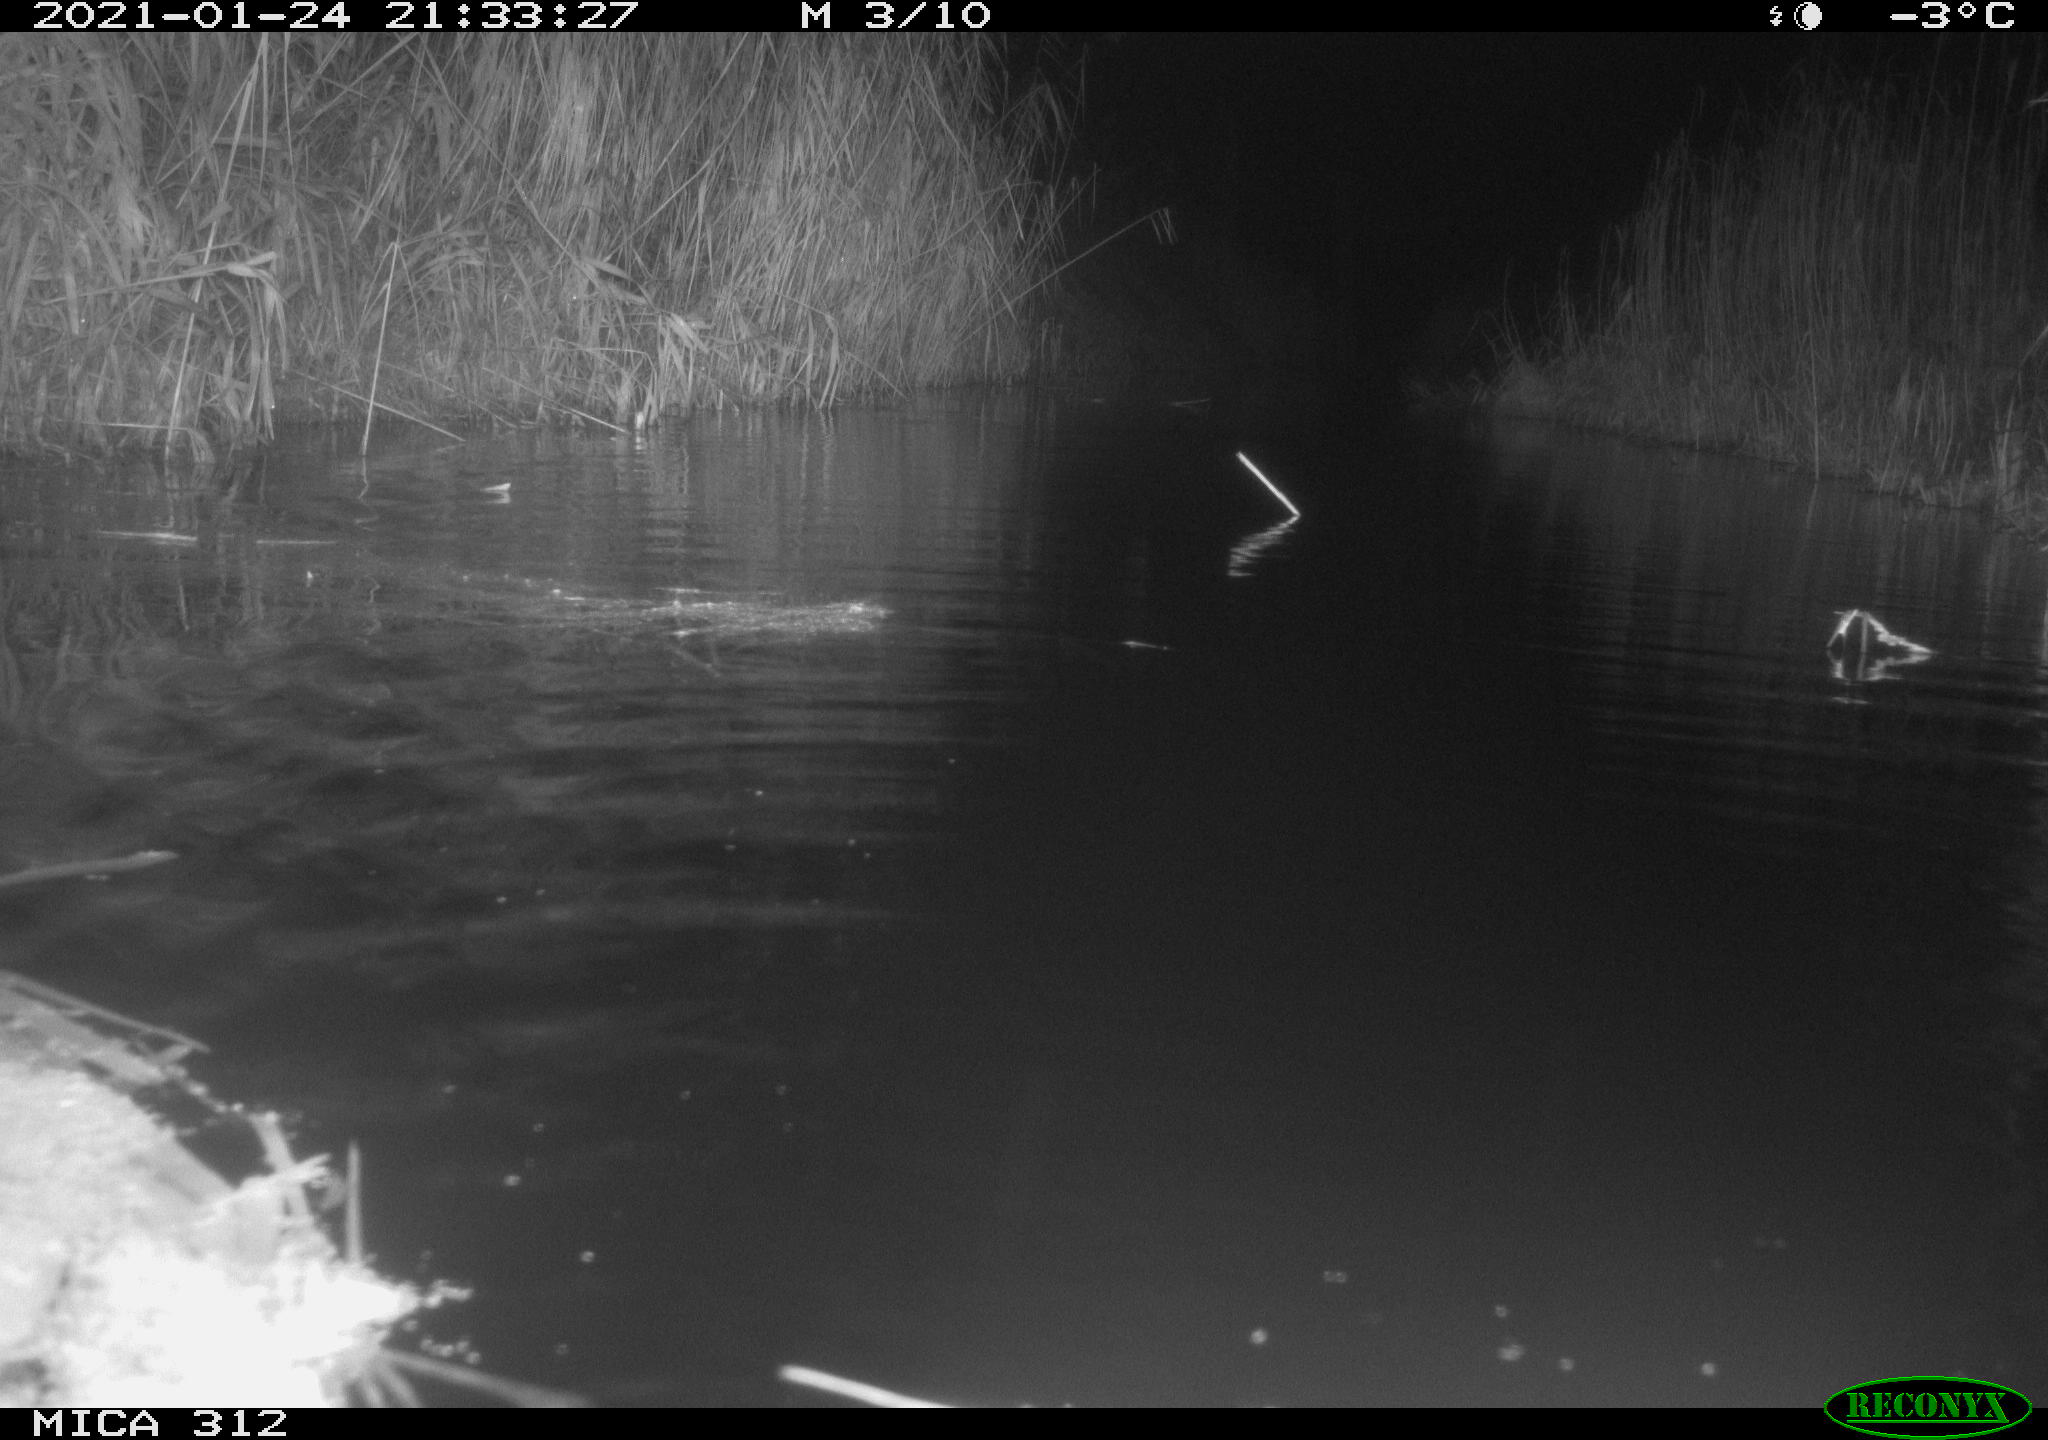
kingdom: Animalia
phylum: Chordata
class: Mammalia
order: Rodentia
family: Muridae
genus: Rattus
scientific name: Rattus norvegicus
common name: Brown rat
